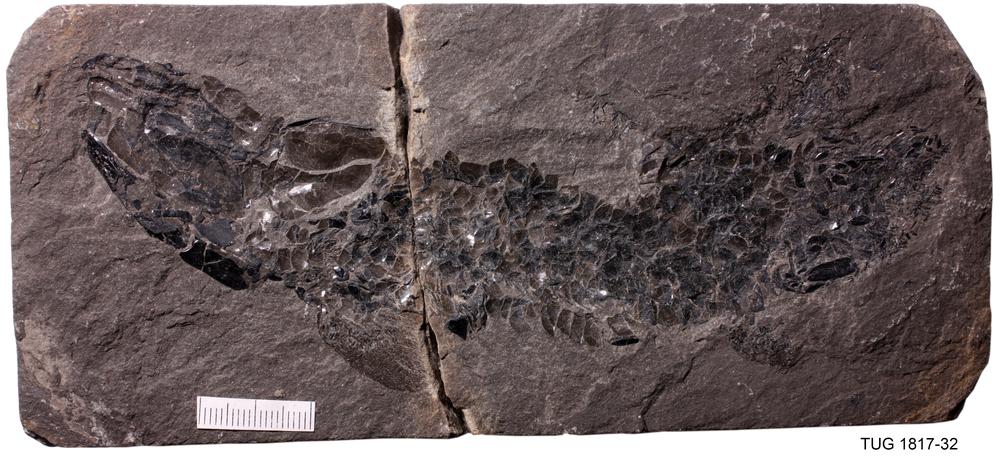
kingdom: Animalia
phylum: Chordata
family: Osteolepididae
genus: Osteolepis
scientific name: Osteolepis macrolepidotus
